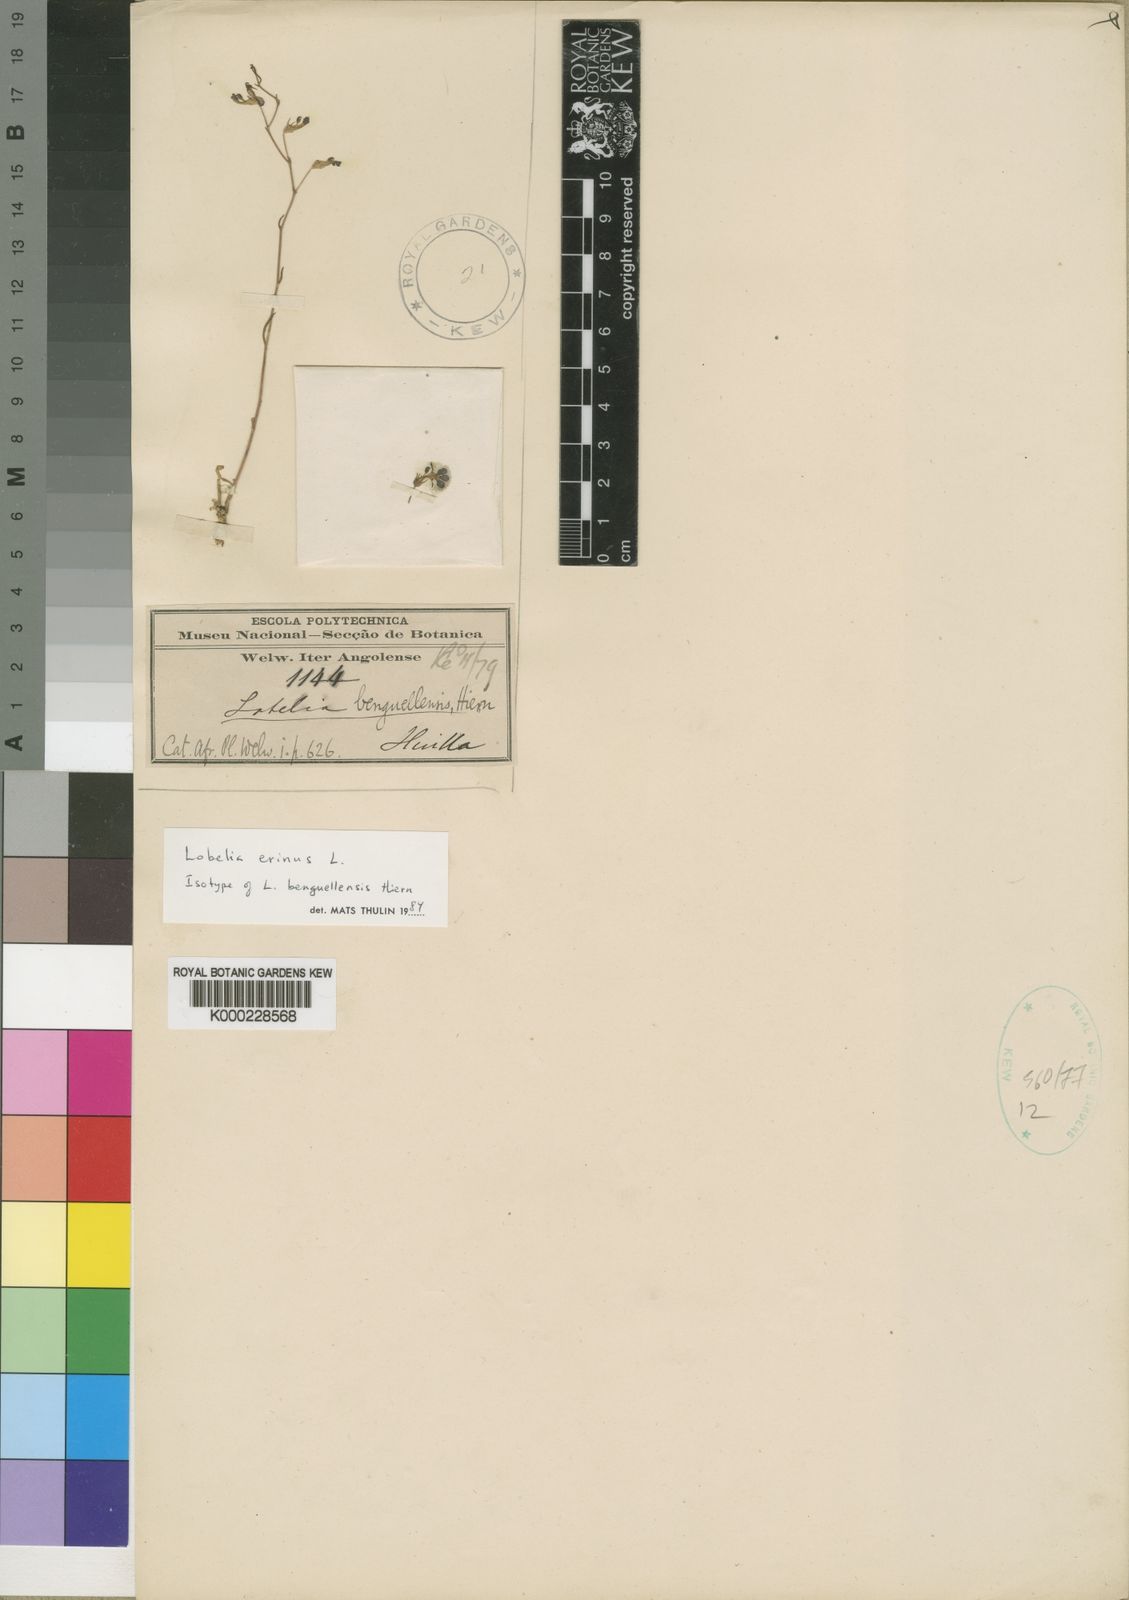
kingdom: Plantae
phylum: Tracheophyta
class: Magnoliopsida
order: Asterales
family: Campanulaceae
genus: Lobelia
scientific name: Lobelia erinus
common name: Edging lobelia
